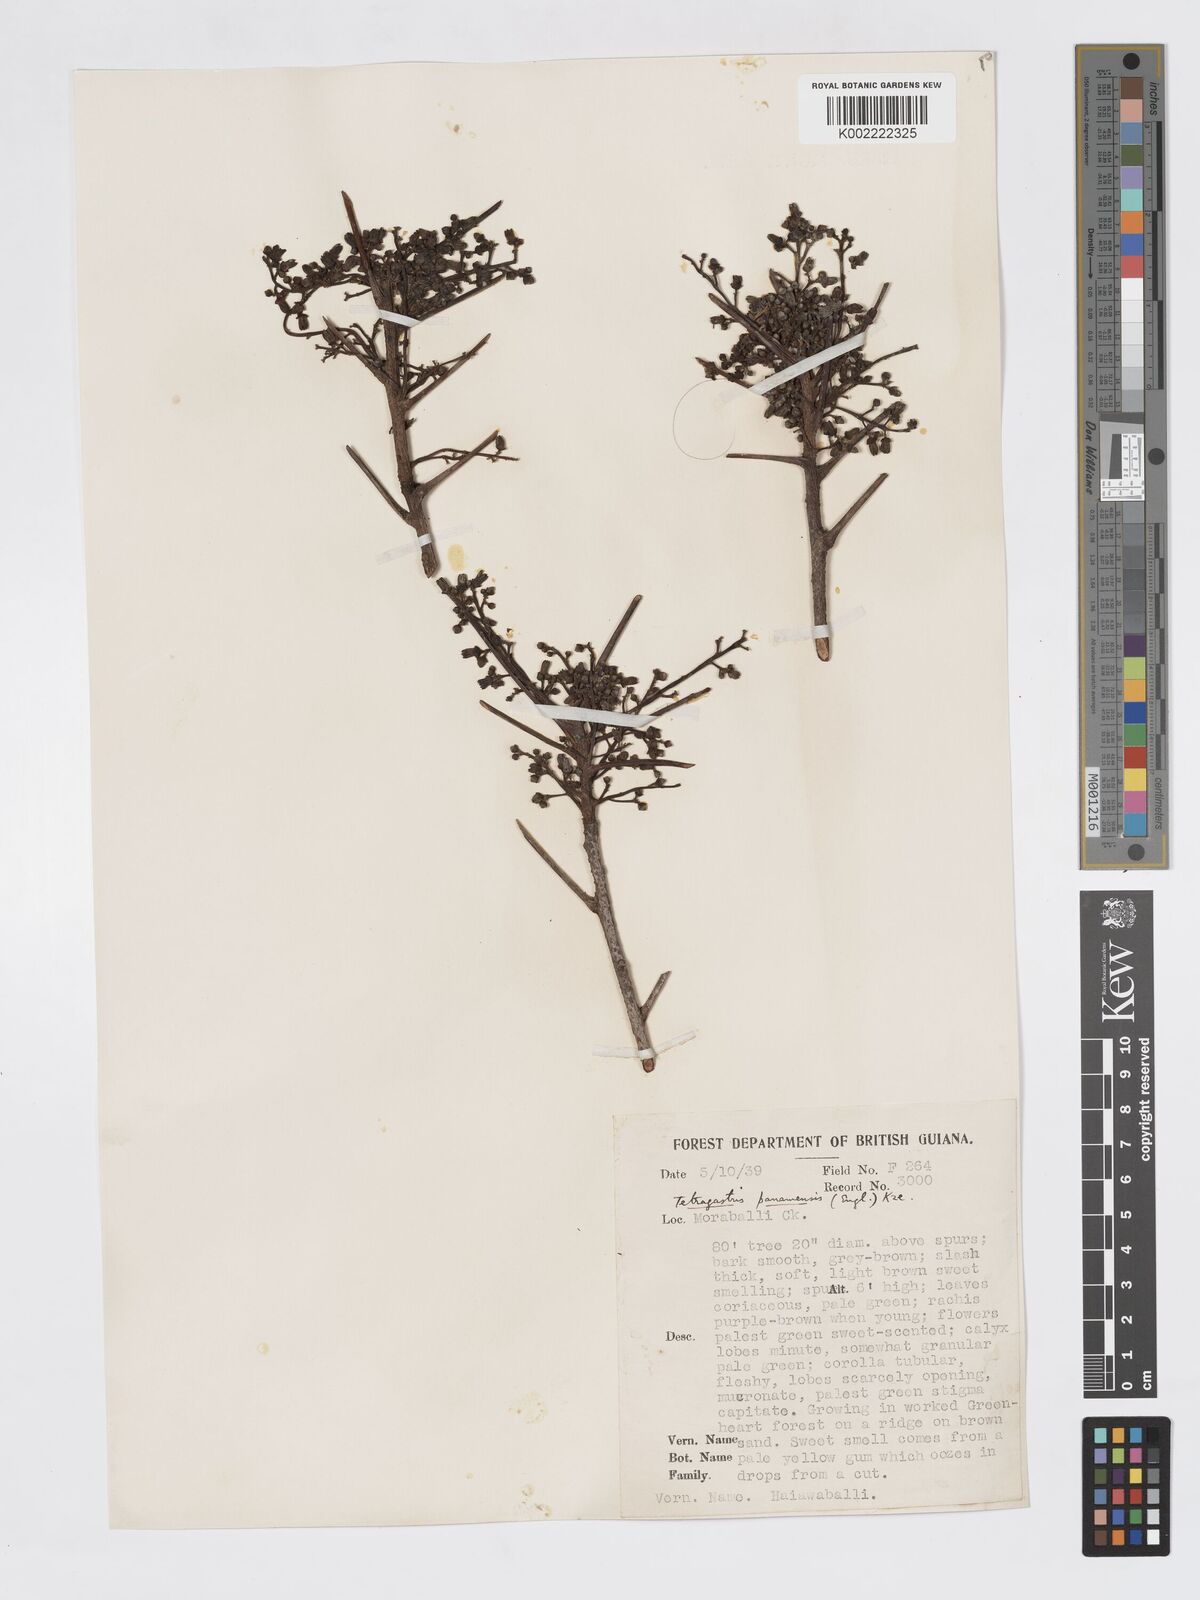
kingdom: Plantae
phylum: Tracheophyta
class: Magnoliopsida
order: Sapindales
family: Burseraceae
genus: Tetragastris
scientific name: Tetragastris panamensis
